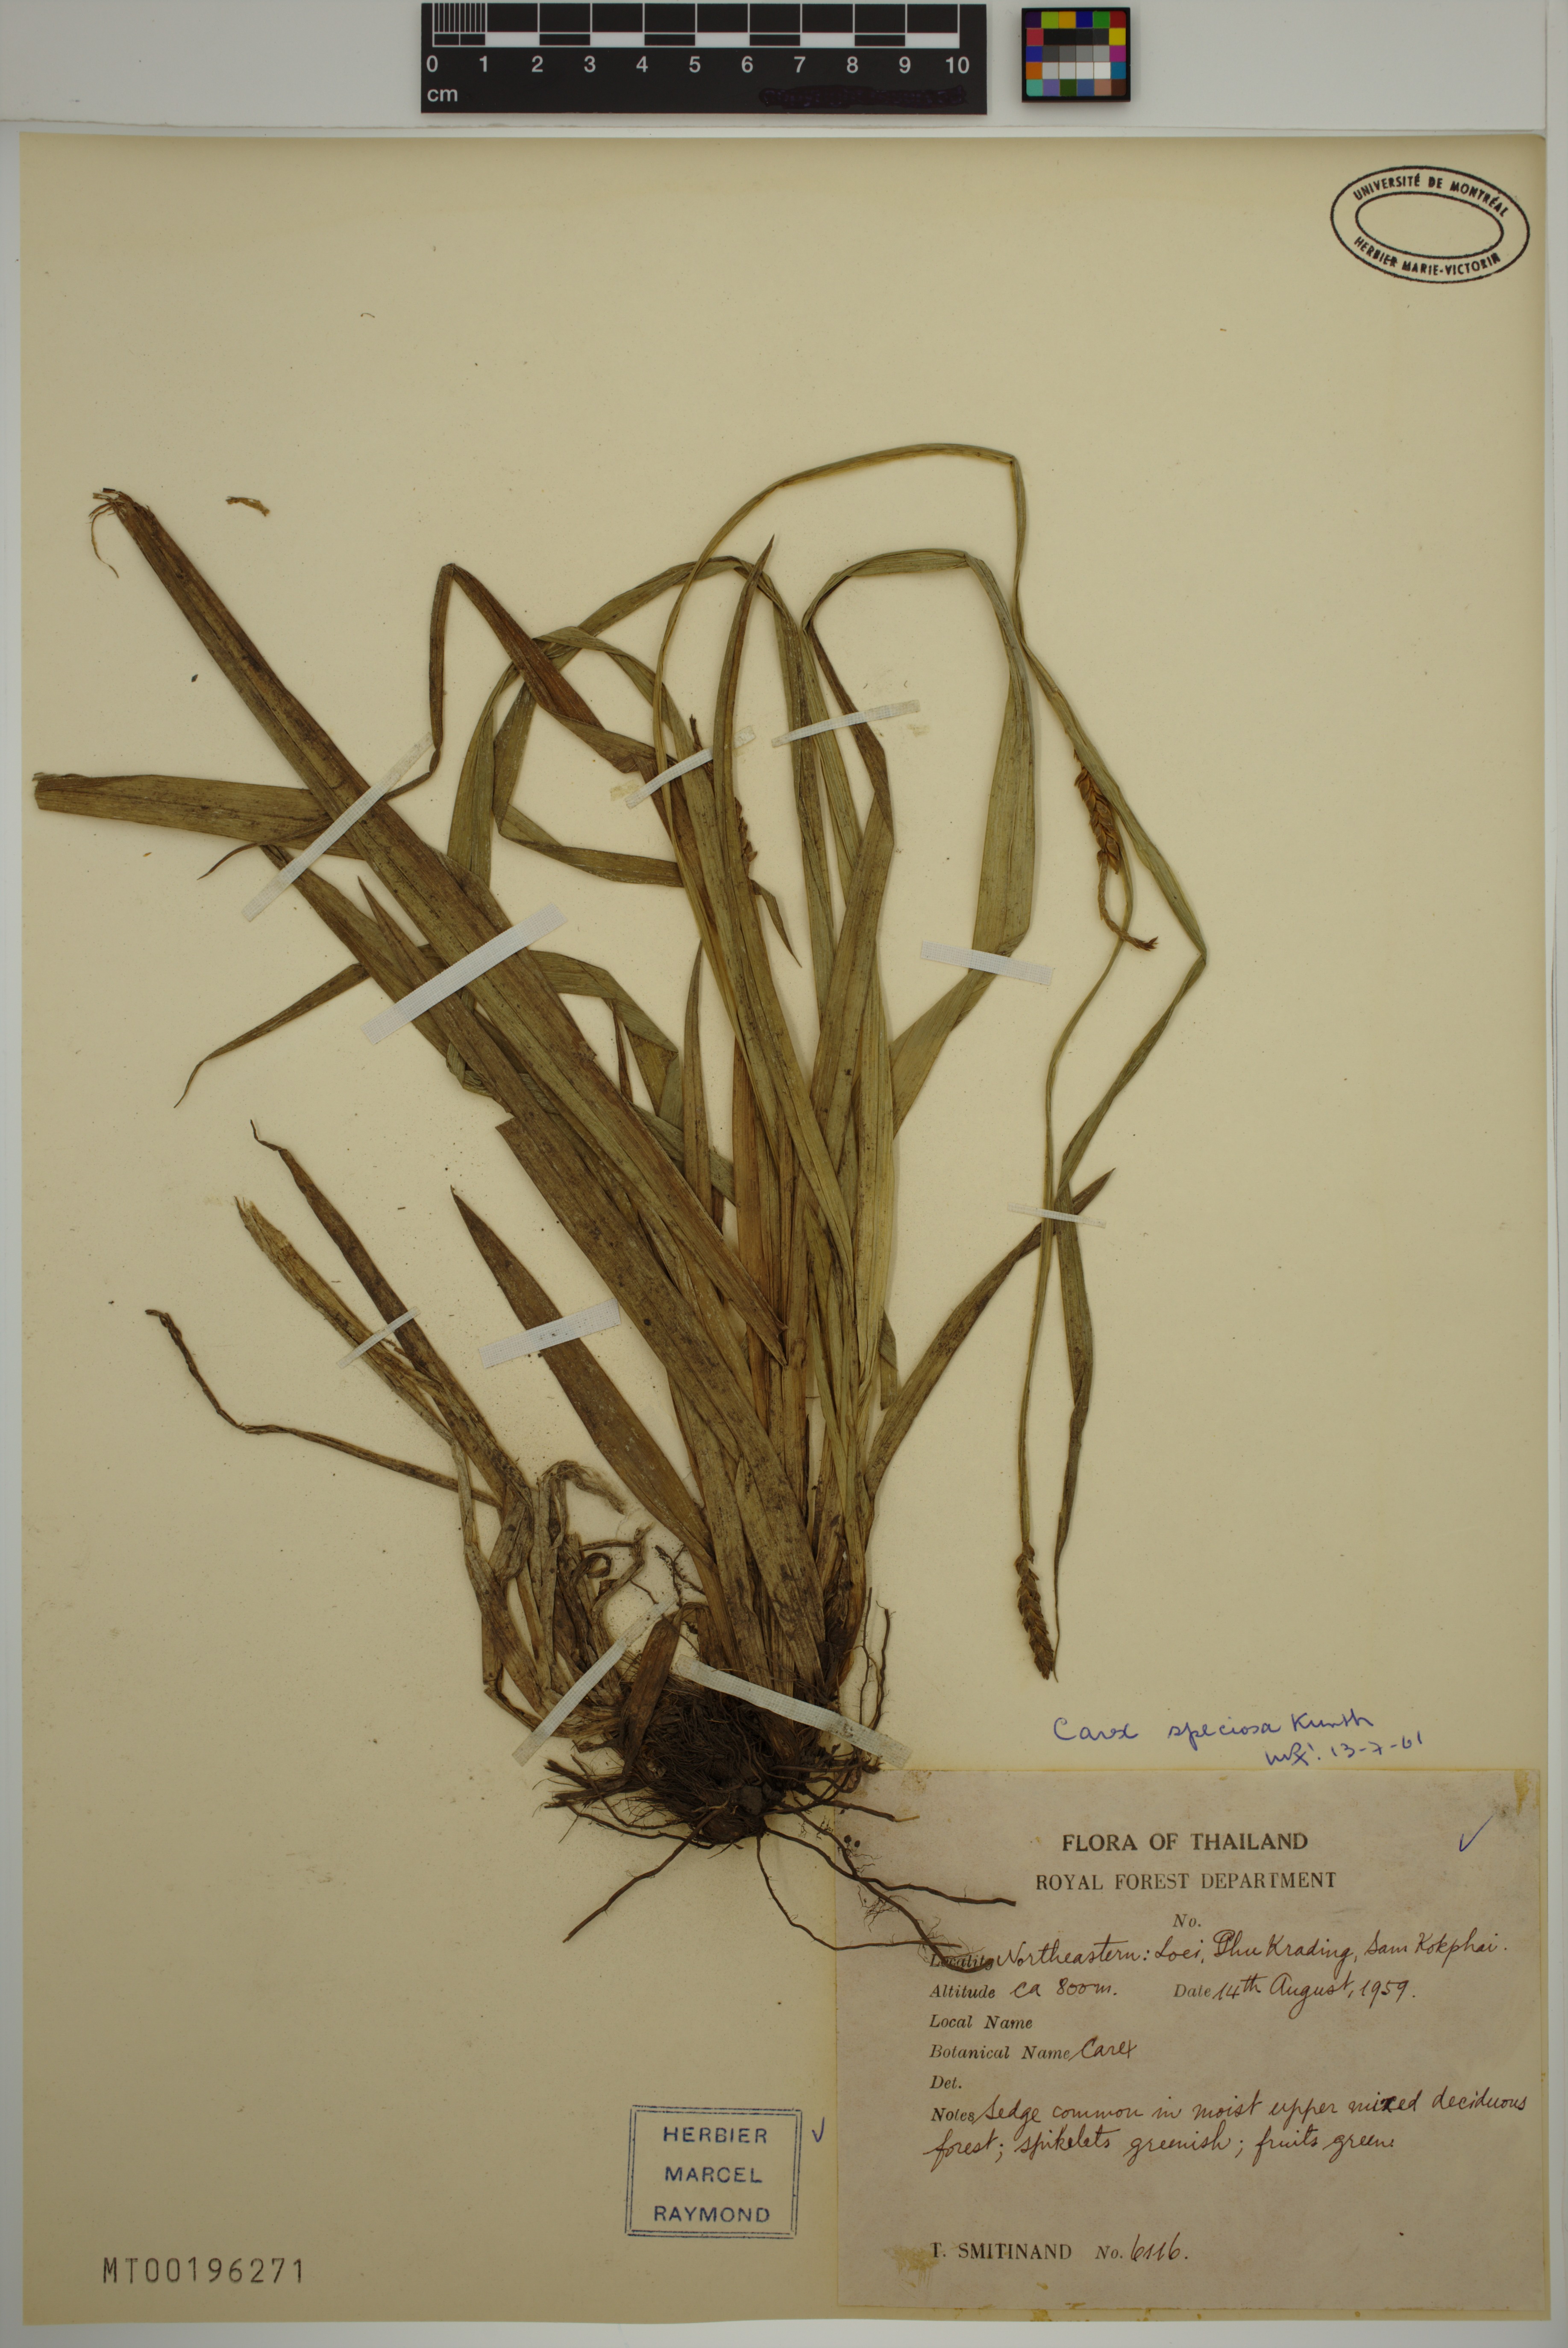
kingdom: Plantae
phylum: Tracheophyta
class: Liliopsida
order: Poales
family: Cyperaceae
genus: Carex
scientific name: Carex speciosa
